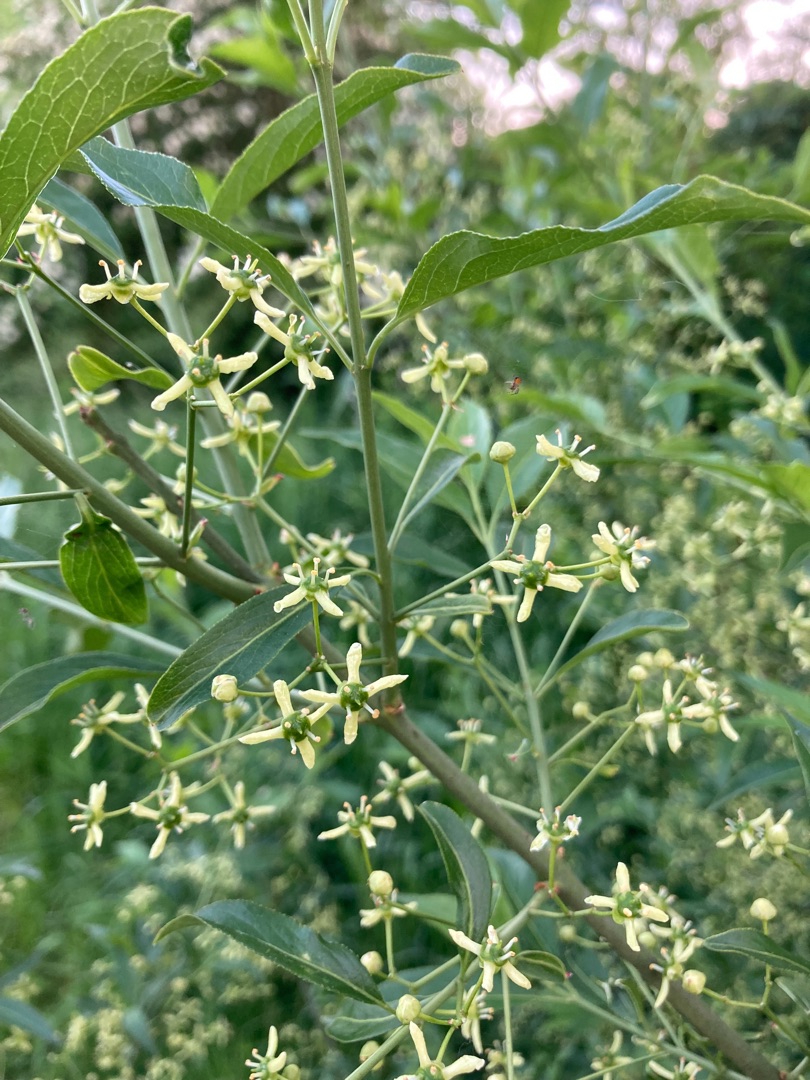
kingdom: Plantae
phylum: Tracheophyta
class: Magnoliopsida
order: Celastrales
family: Celastraceae
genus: Euonymus
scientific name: Euonymus europaeus
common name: Benved
